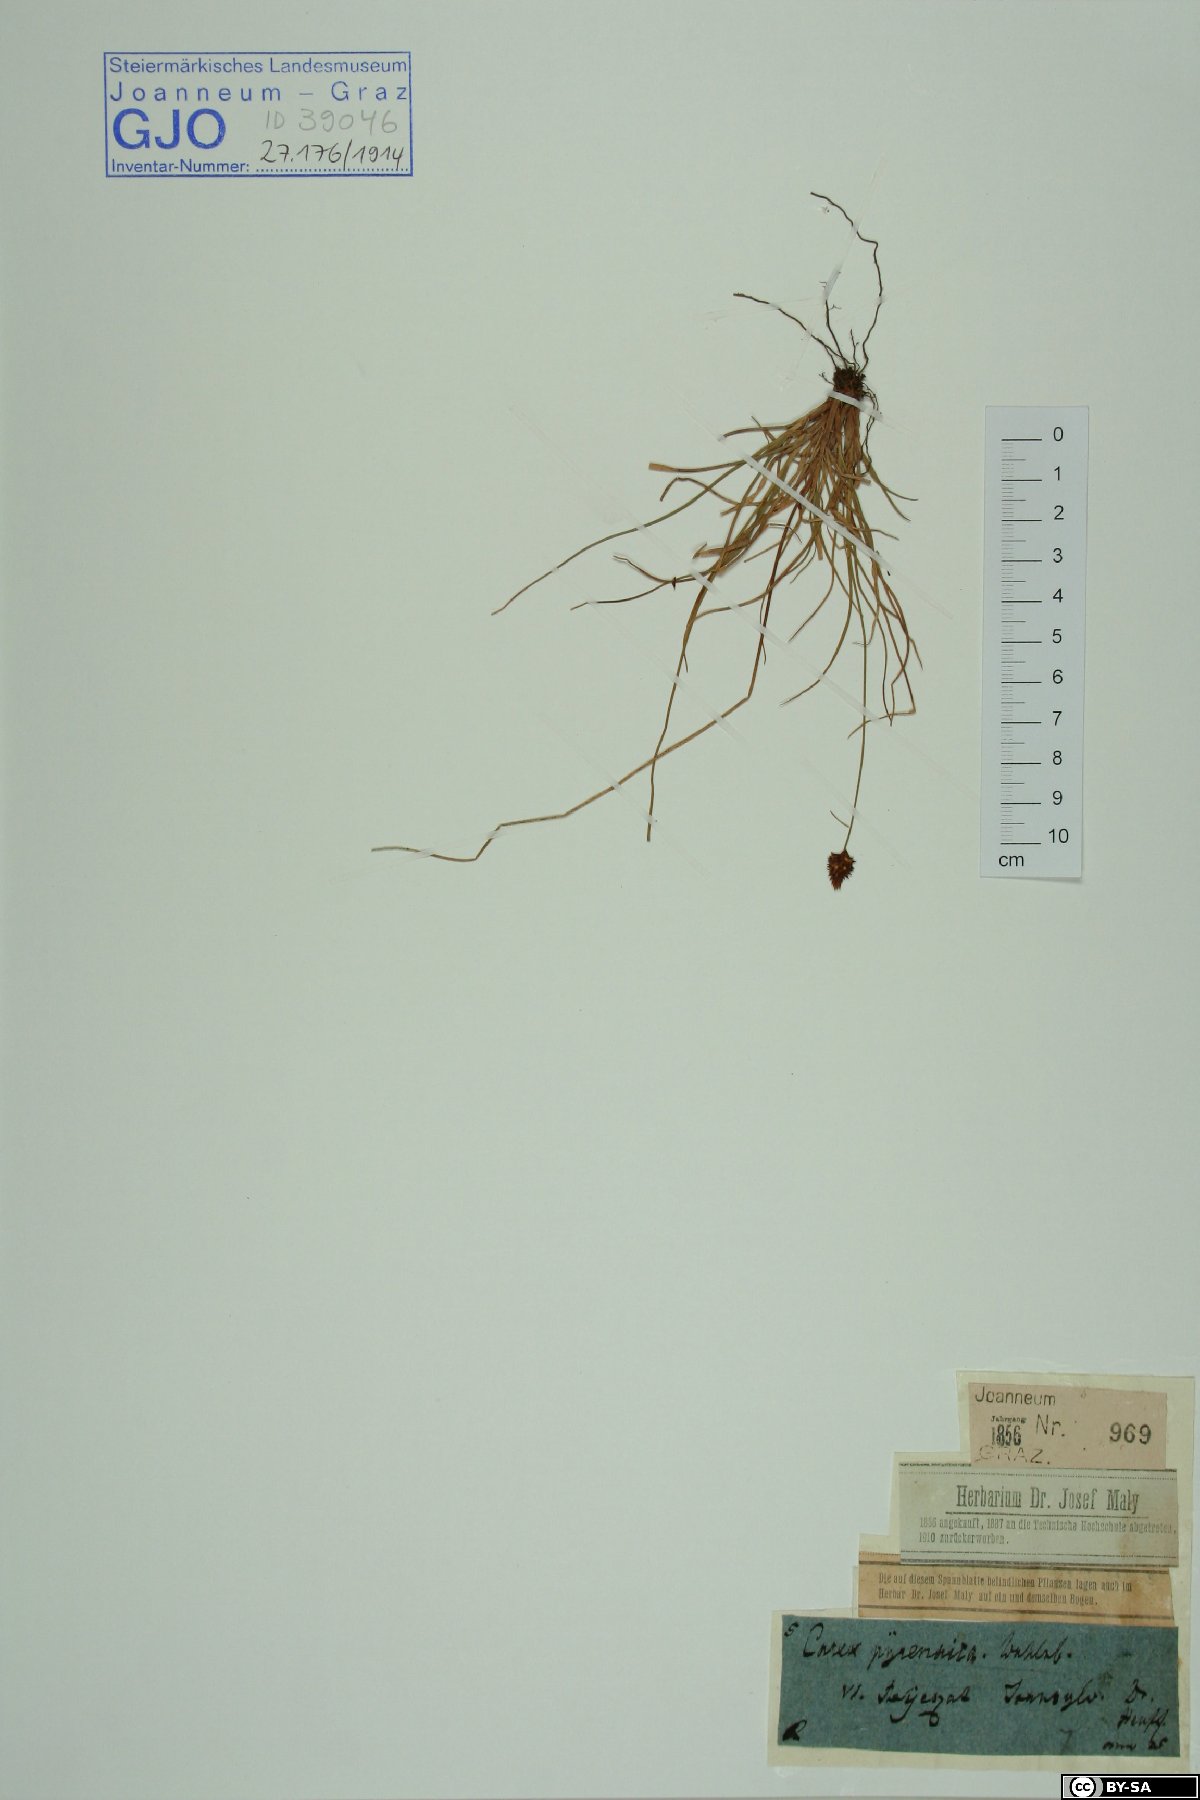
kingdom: Plantae
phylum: Tracheophyta
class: Liliopsida
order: Poales
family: Cyperaceae
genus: Carex
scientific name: Carex pyrenaica
